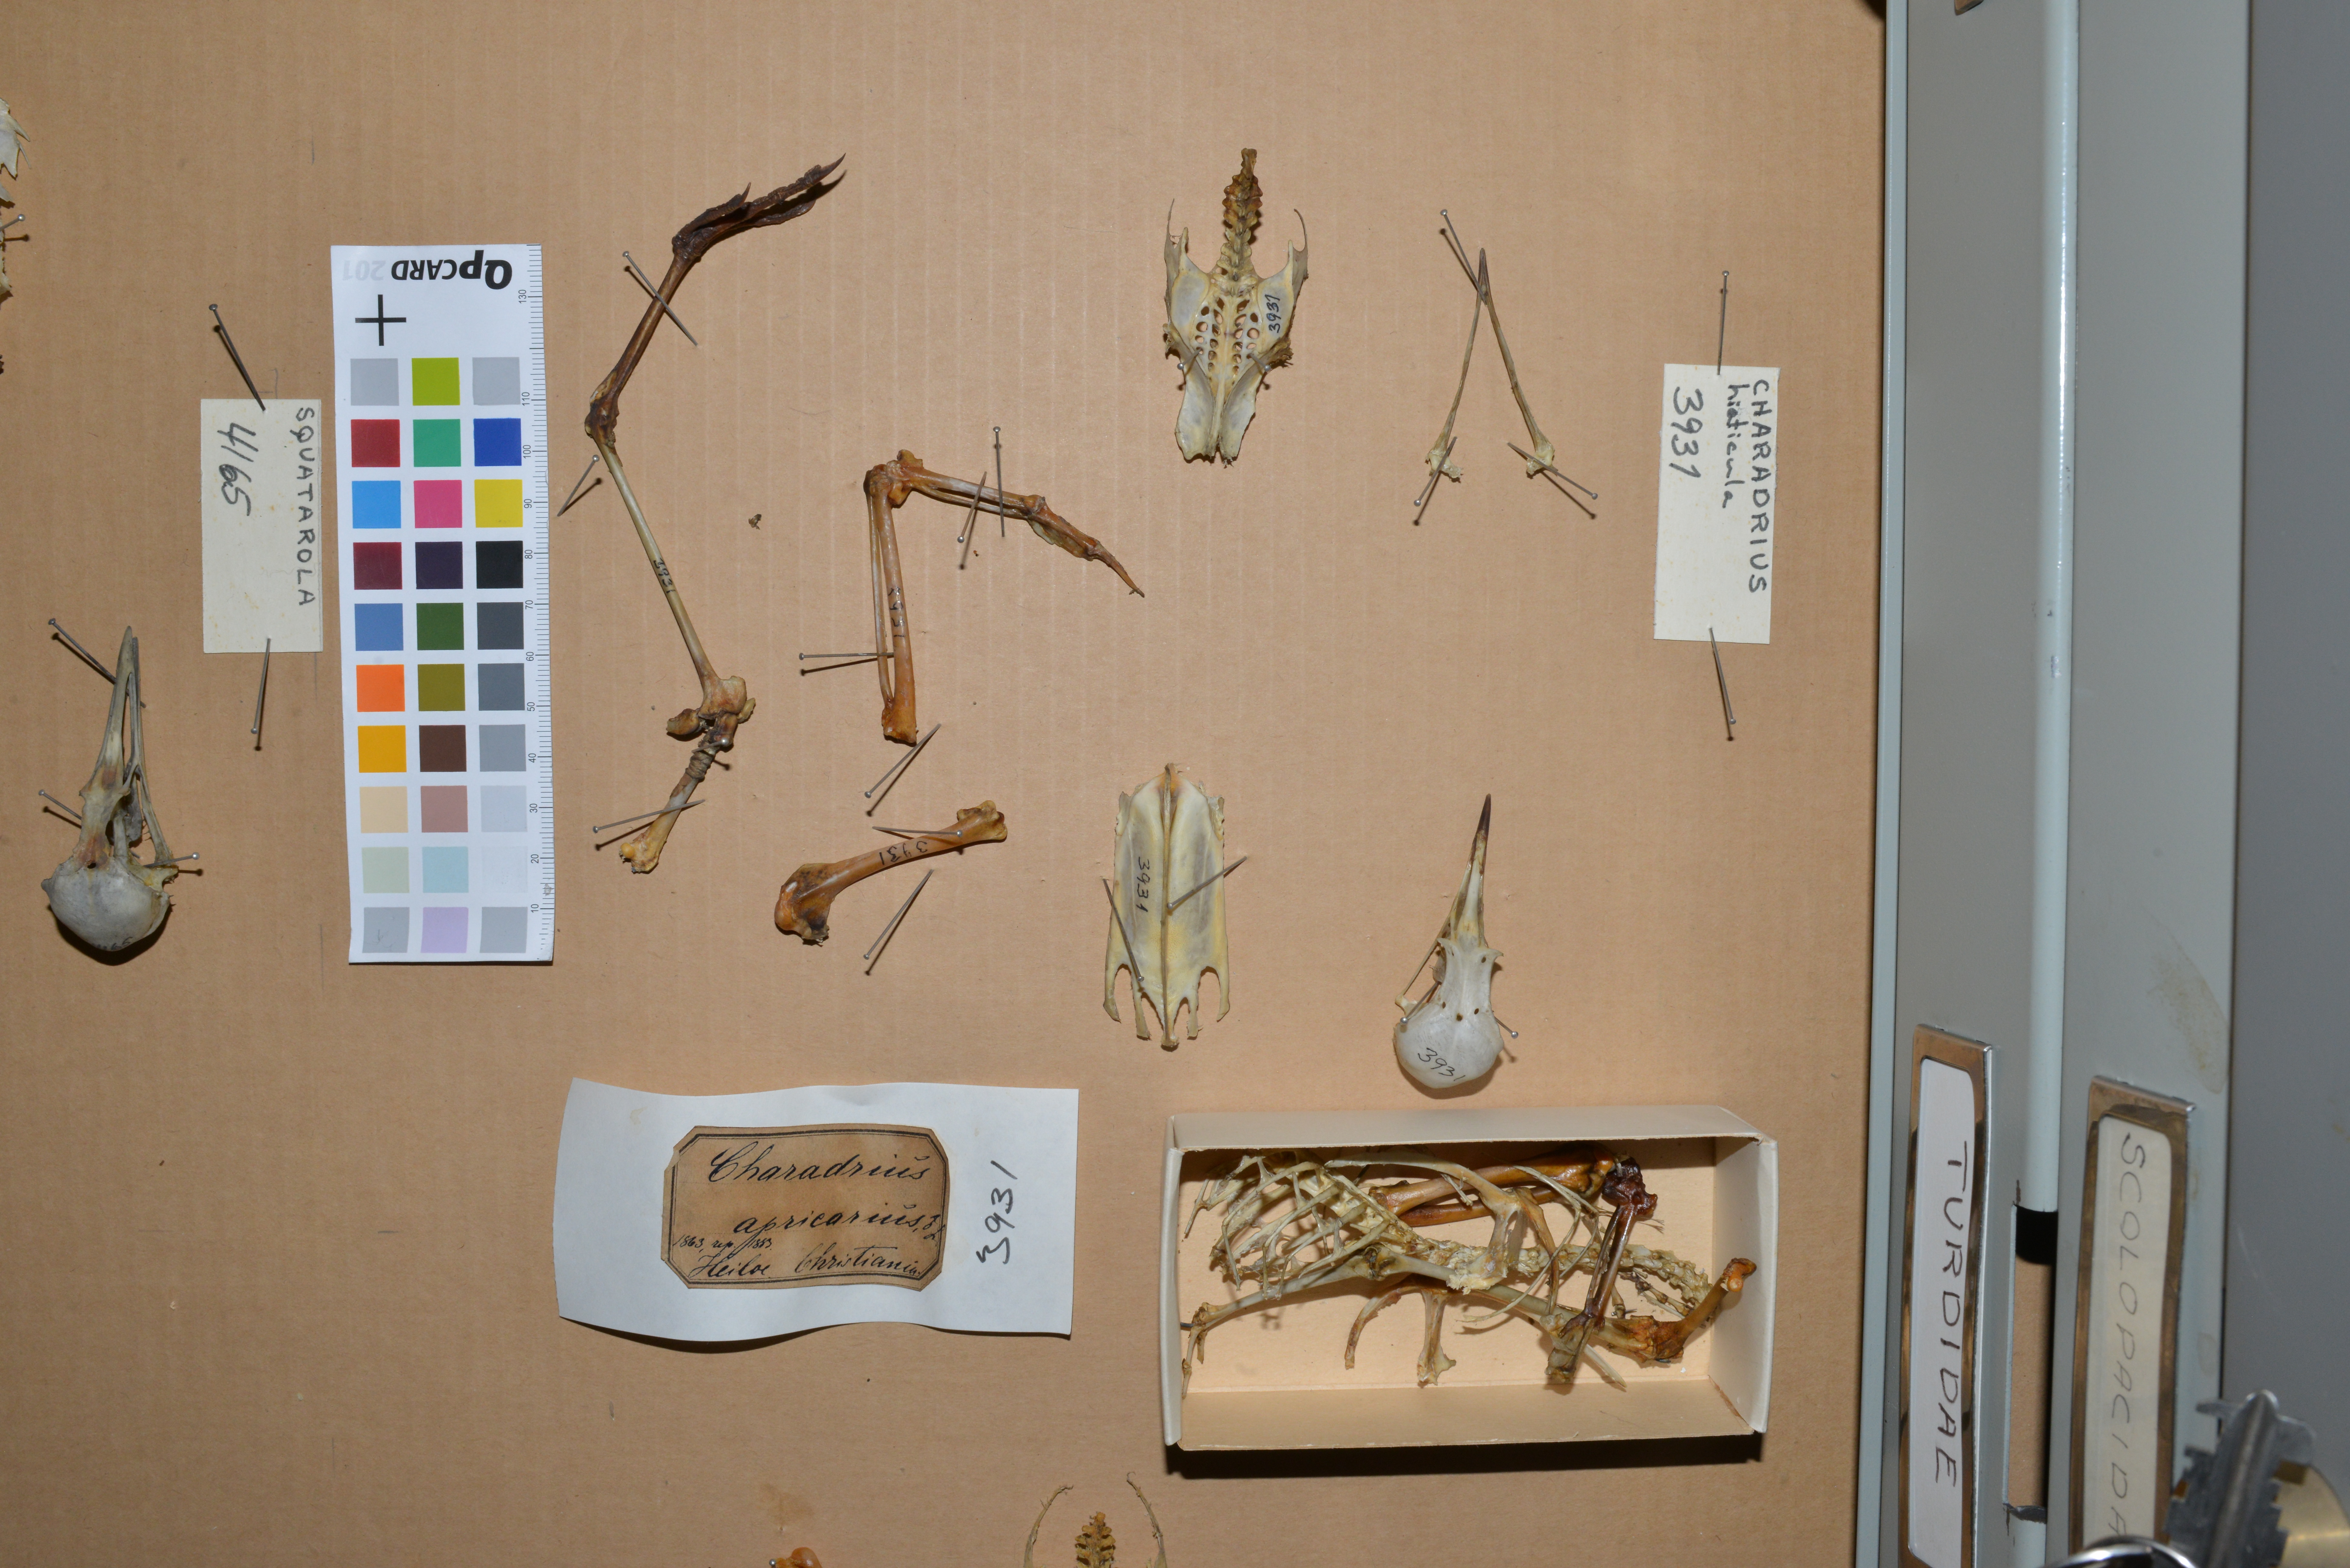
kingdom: Animalia
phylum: Chordata
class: Aves
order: Charadriiformes
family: Charadriidae
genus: Pluvialis
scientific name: Pluvialis apricaria
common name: European golden plover
